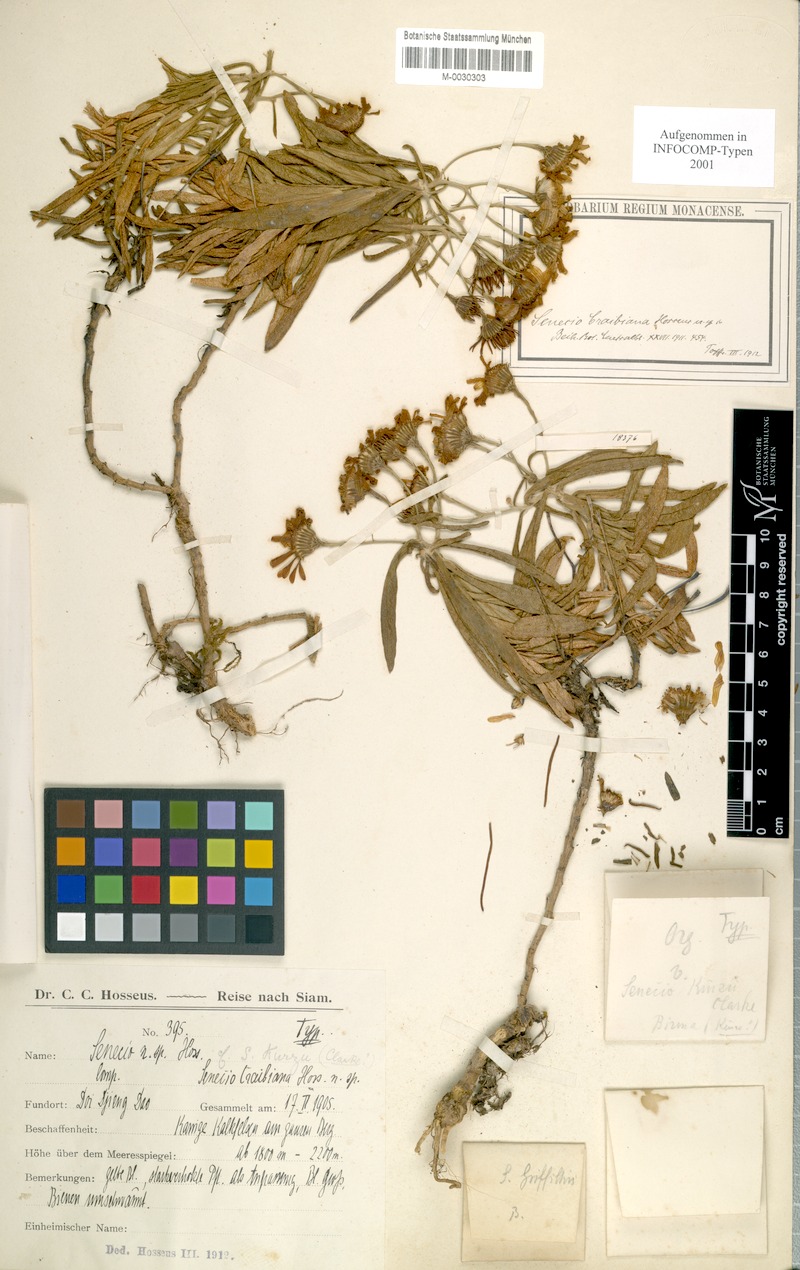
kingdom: Plantae
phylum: Tracheophyta
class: Magnoliopsida
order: Asterales
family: Asteraceae
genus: Senecio
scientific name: Senecio craibianus
